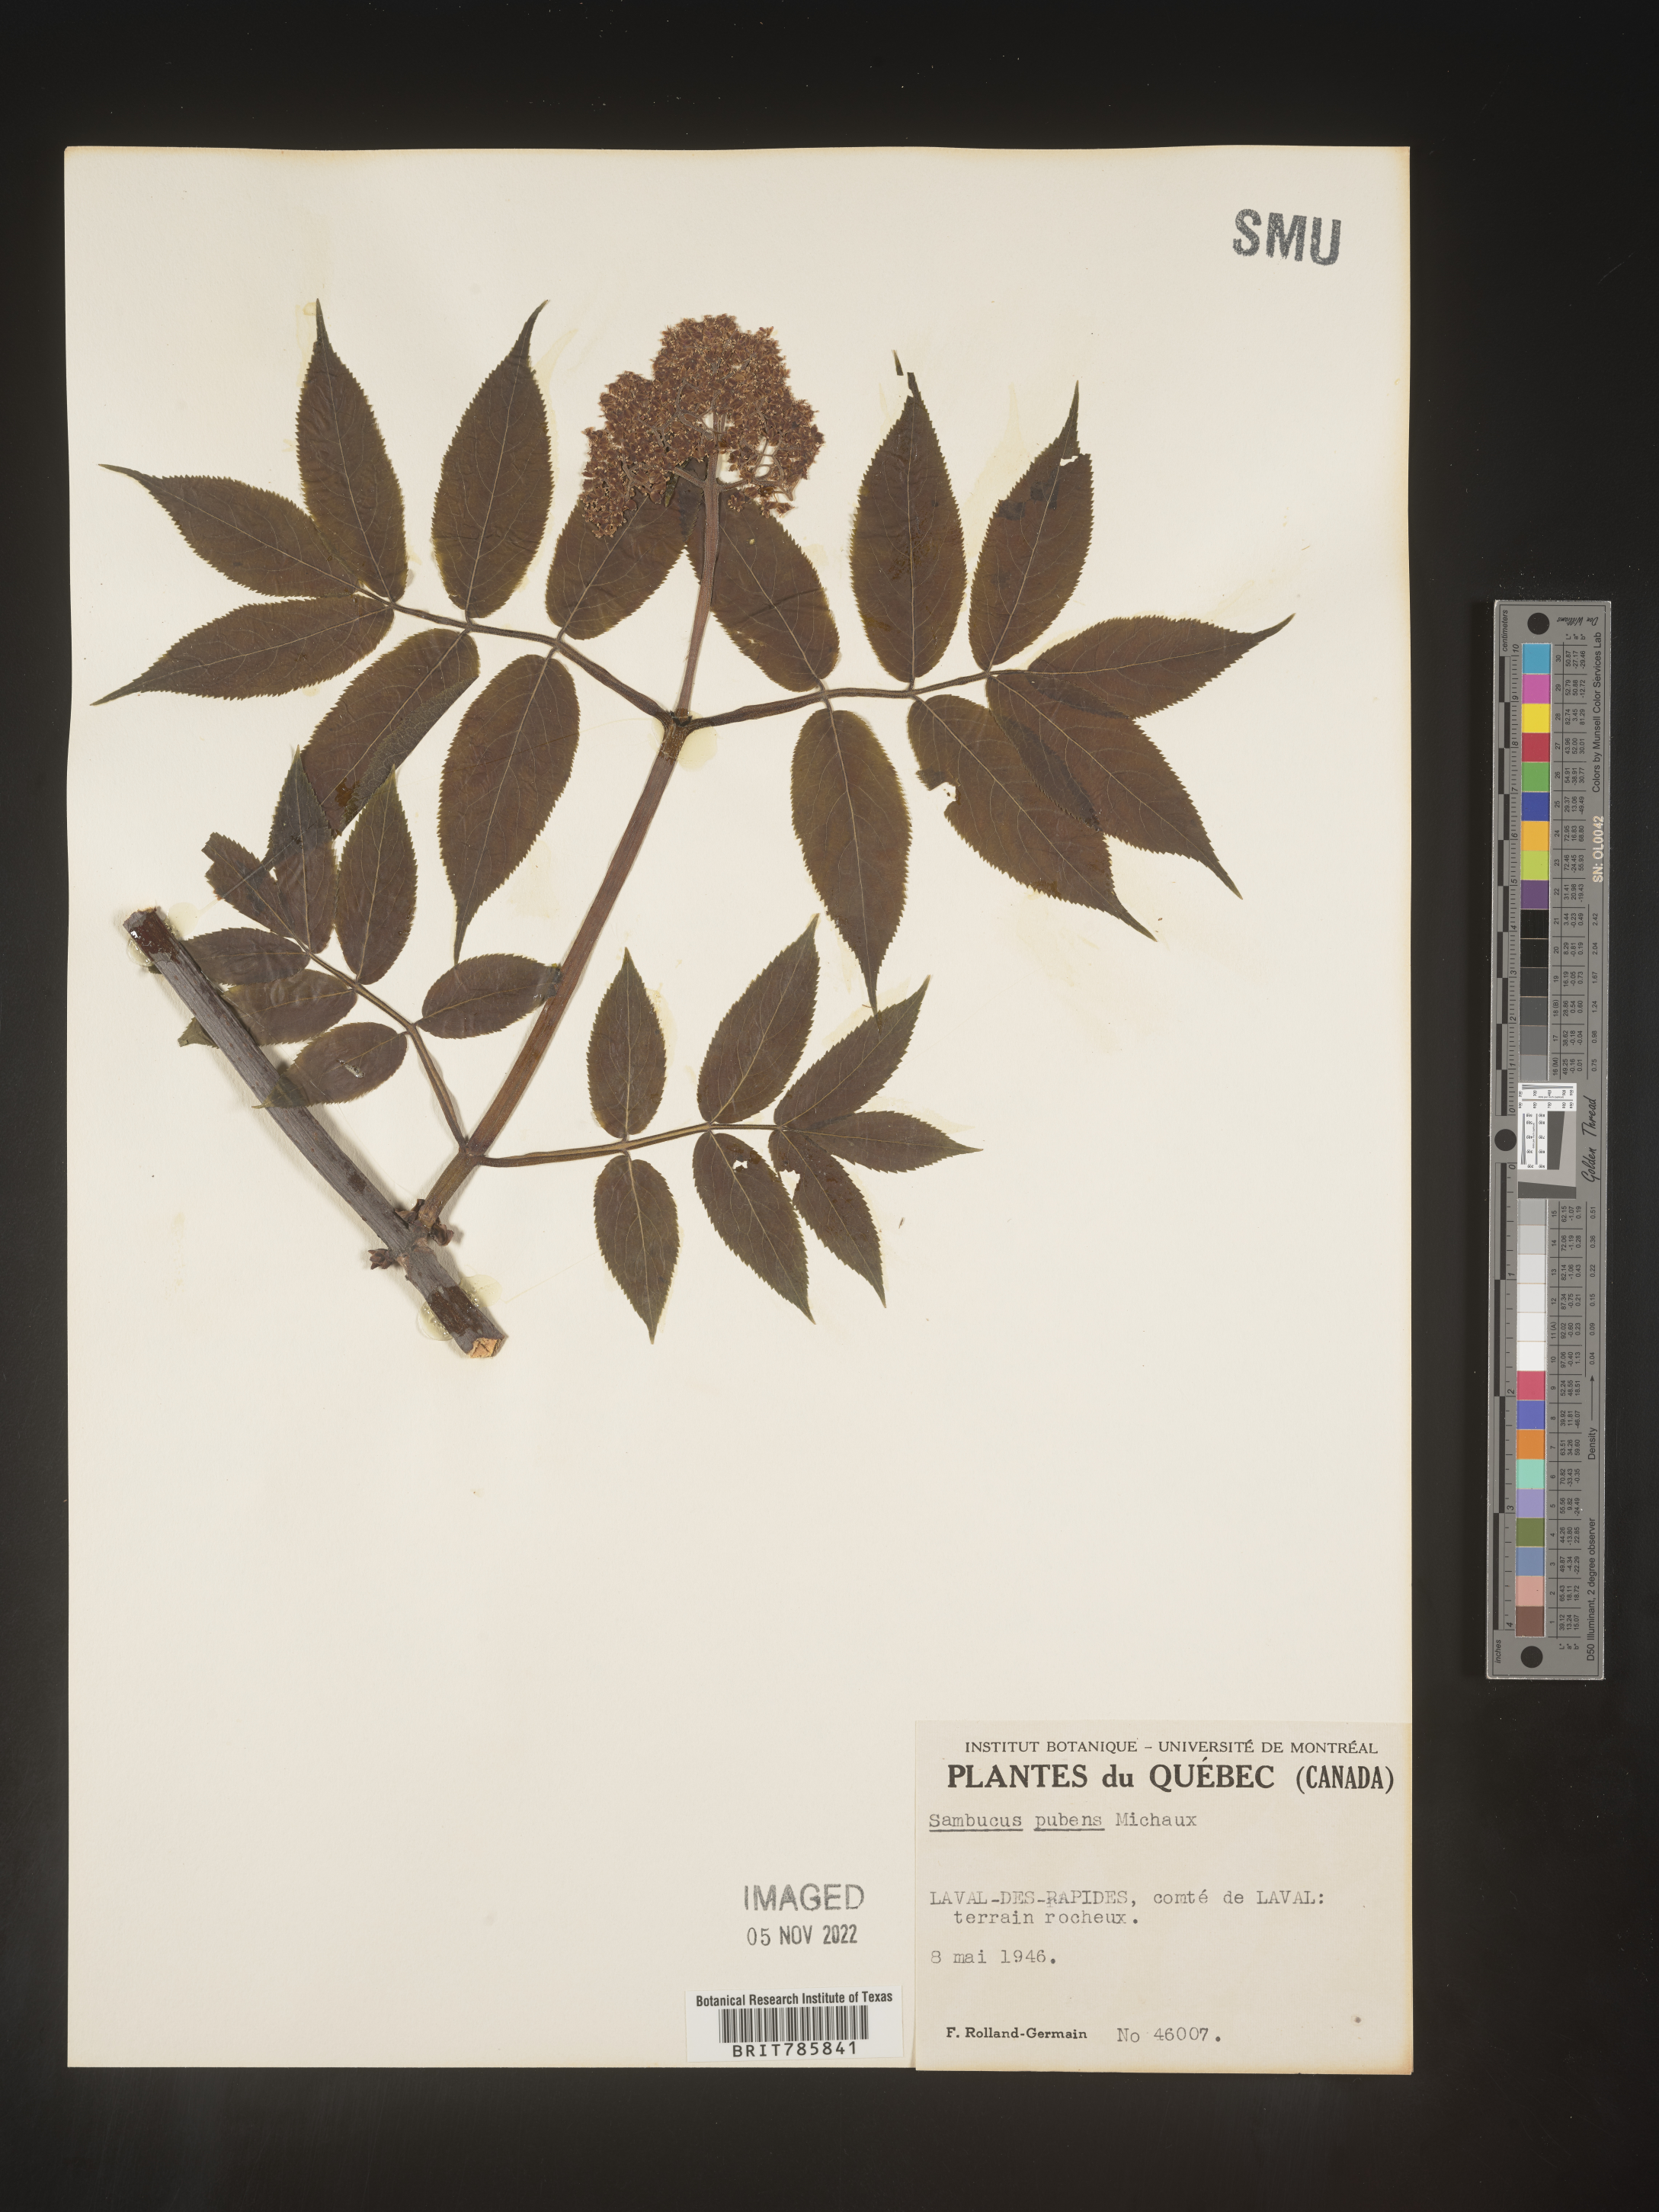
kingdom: Plantae
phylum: Tracheophyta
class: Magnoliopsida
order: Dipsacales
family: Viburnaceae
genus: Sambucus
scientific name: Sambucus
